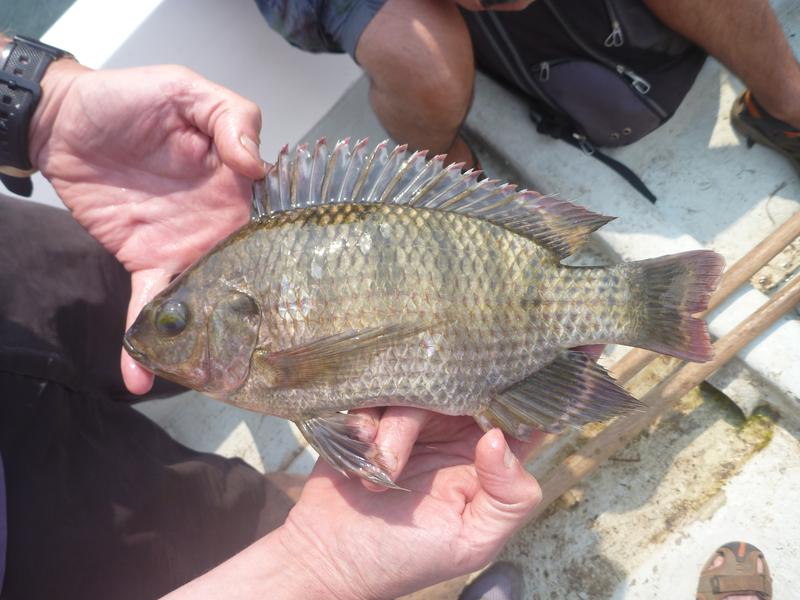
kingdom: Animalia
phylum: Chordata
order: Perciformes
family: Cichlidae
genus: Oreochromis
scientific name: Oreochromis variabilis
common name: Victoria tilapia
